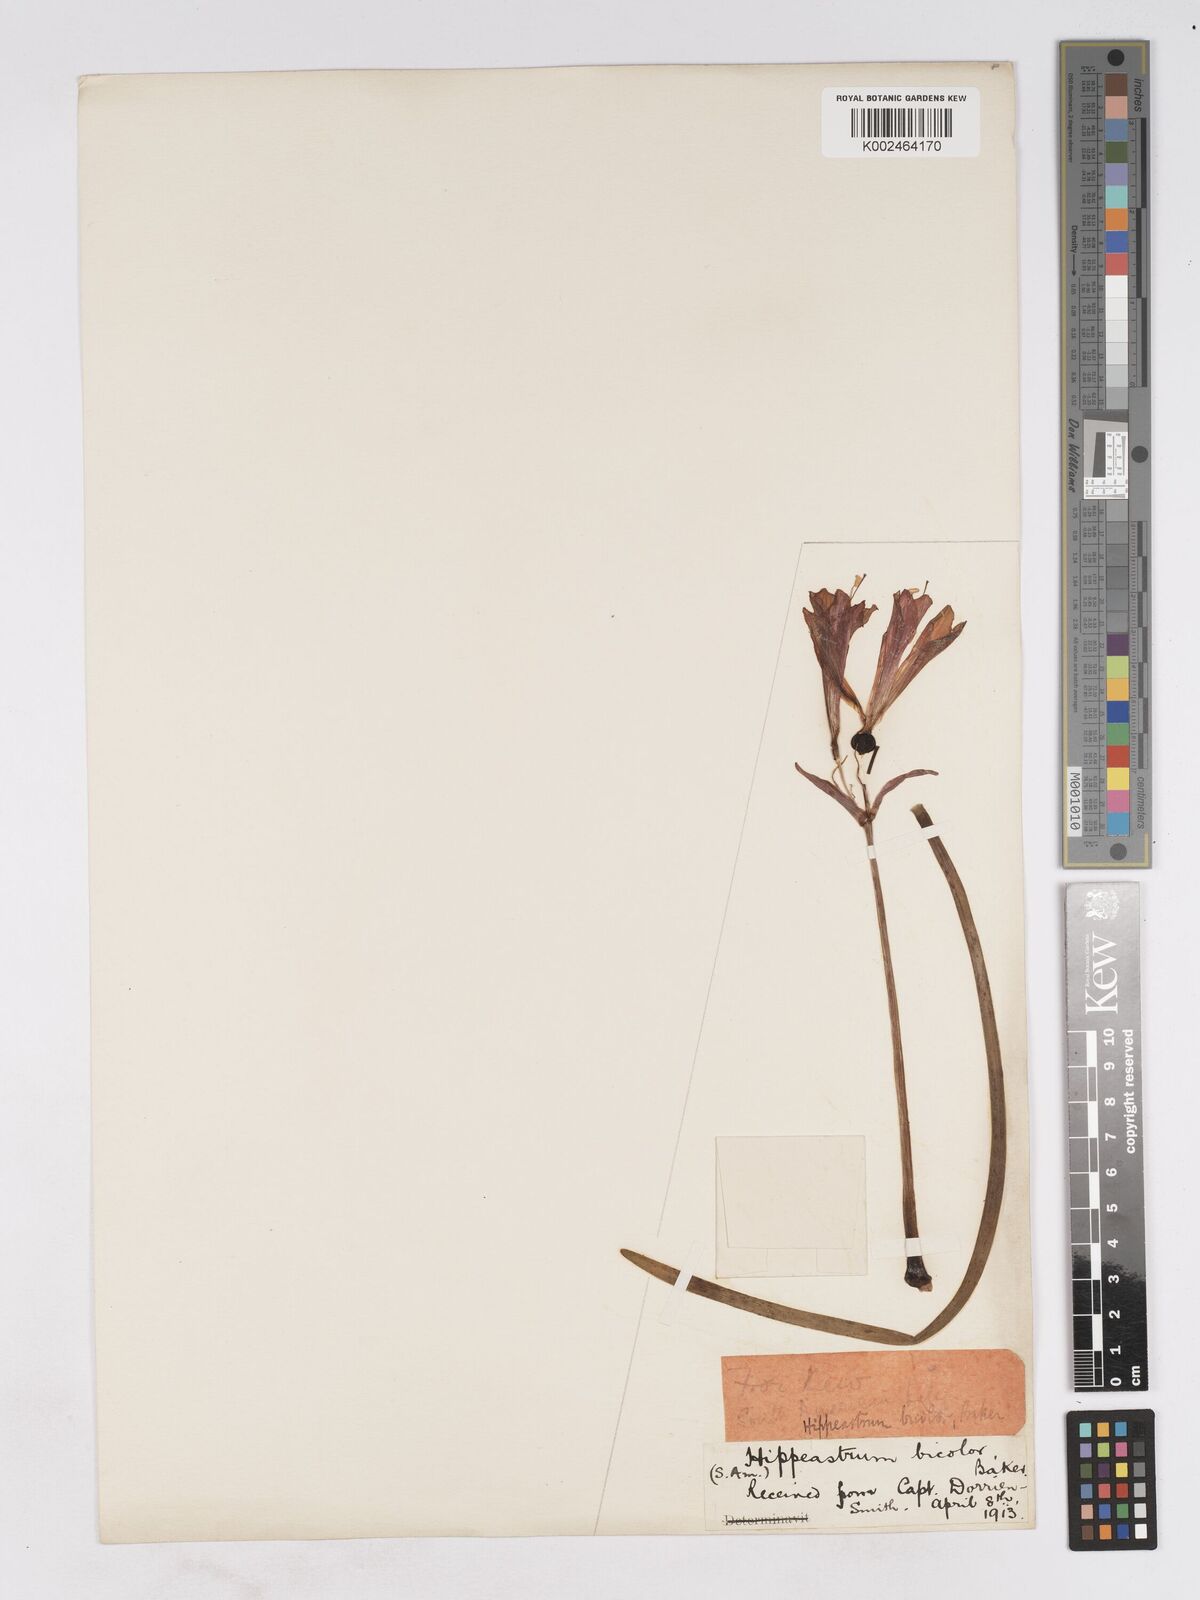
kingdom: Plantae
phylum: Tracheophyta
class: Liliopsida
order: Asparagales
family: Amaryllidaceae
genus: Eustephia
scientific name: Eustephia coccinea
